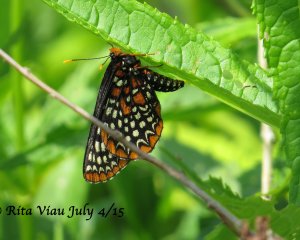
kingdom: Animalia
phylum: Arthropoda
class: Insecta
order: Lepidoptera
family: Nymphalidae
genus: Euphydryas
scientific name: Euphydryas phaeton
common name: Baltimore Checkerspot
